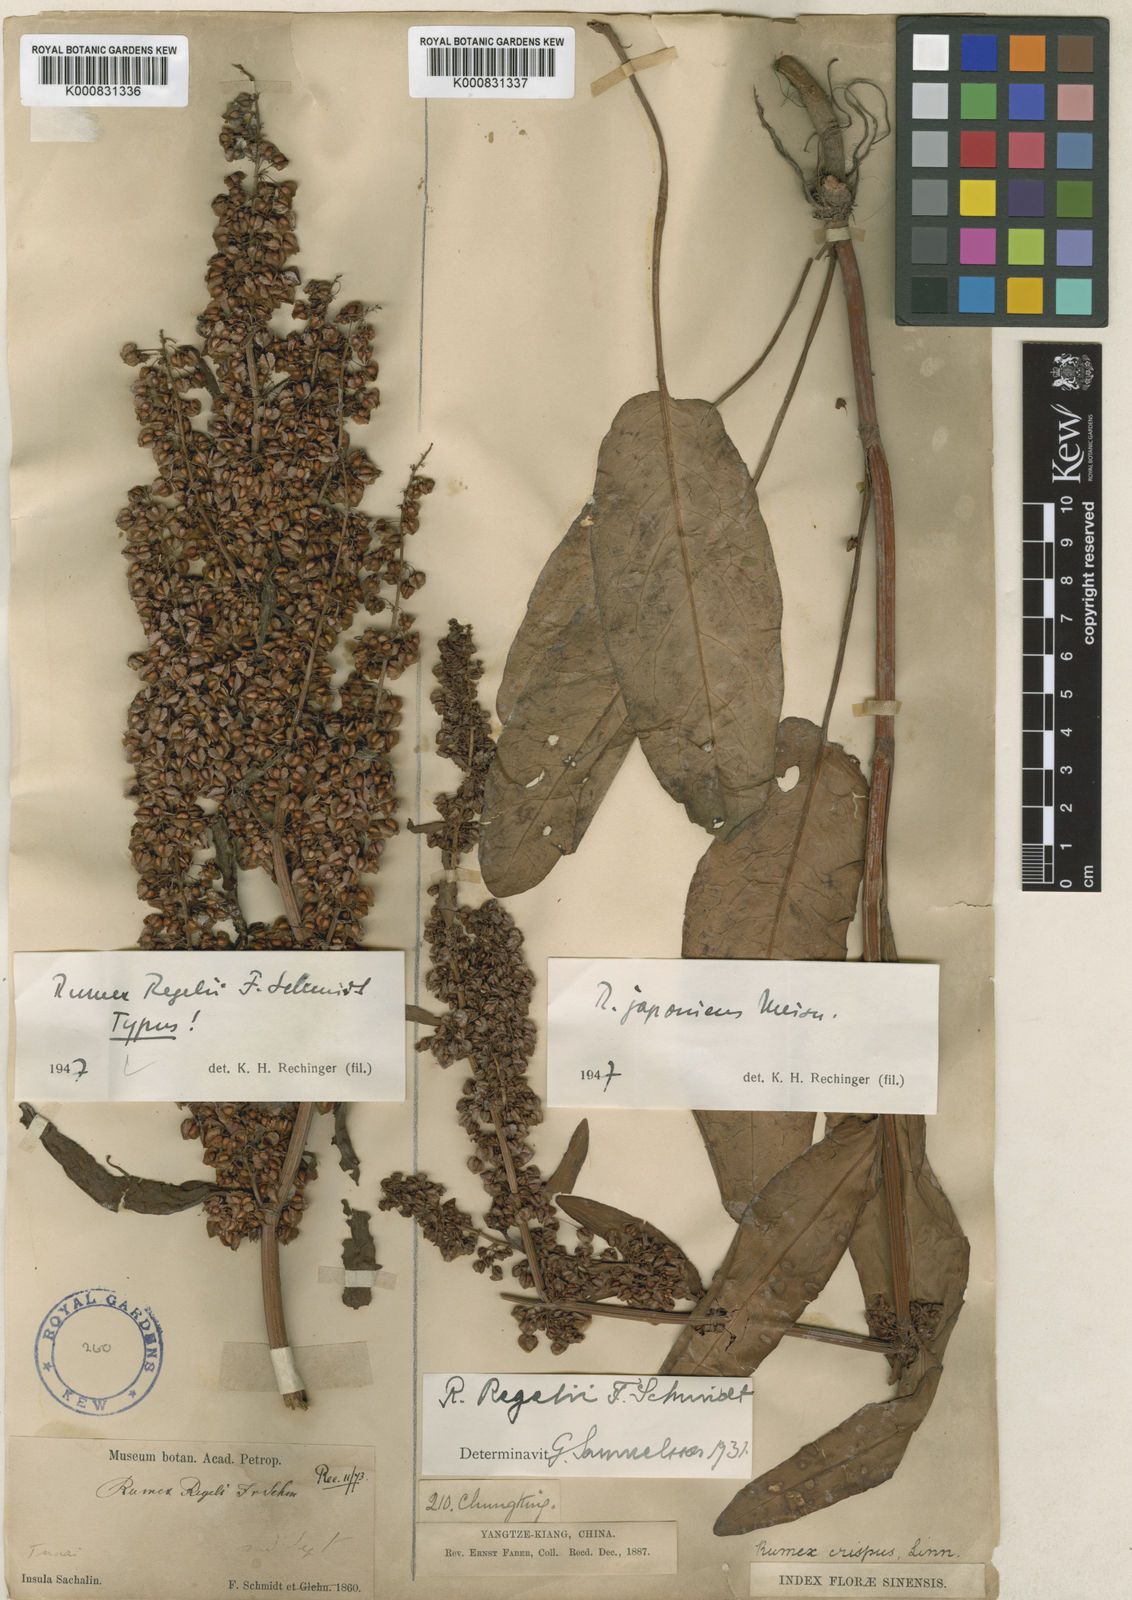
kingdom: Plantae
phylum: Tracheophyta
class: Magnoliopsida
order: Caryophyllales
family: Polygonaceae
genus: Rumex
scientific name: Rumex japonicus
